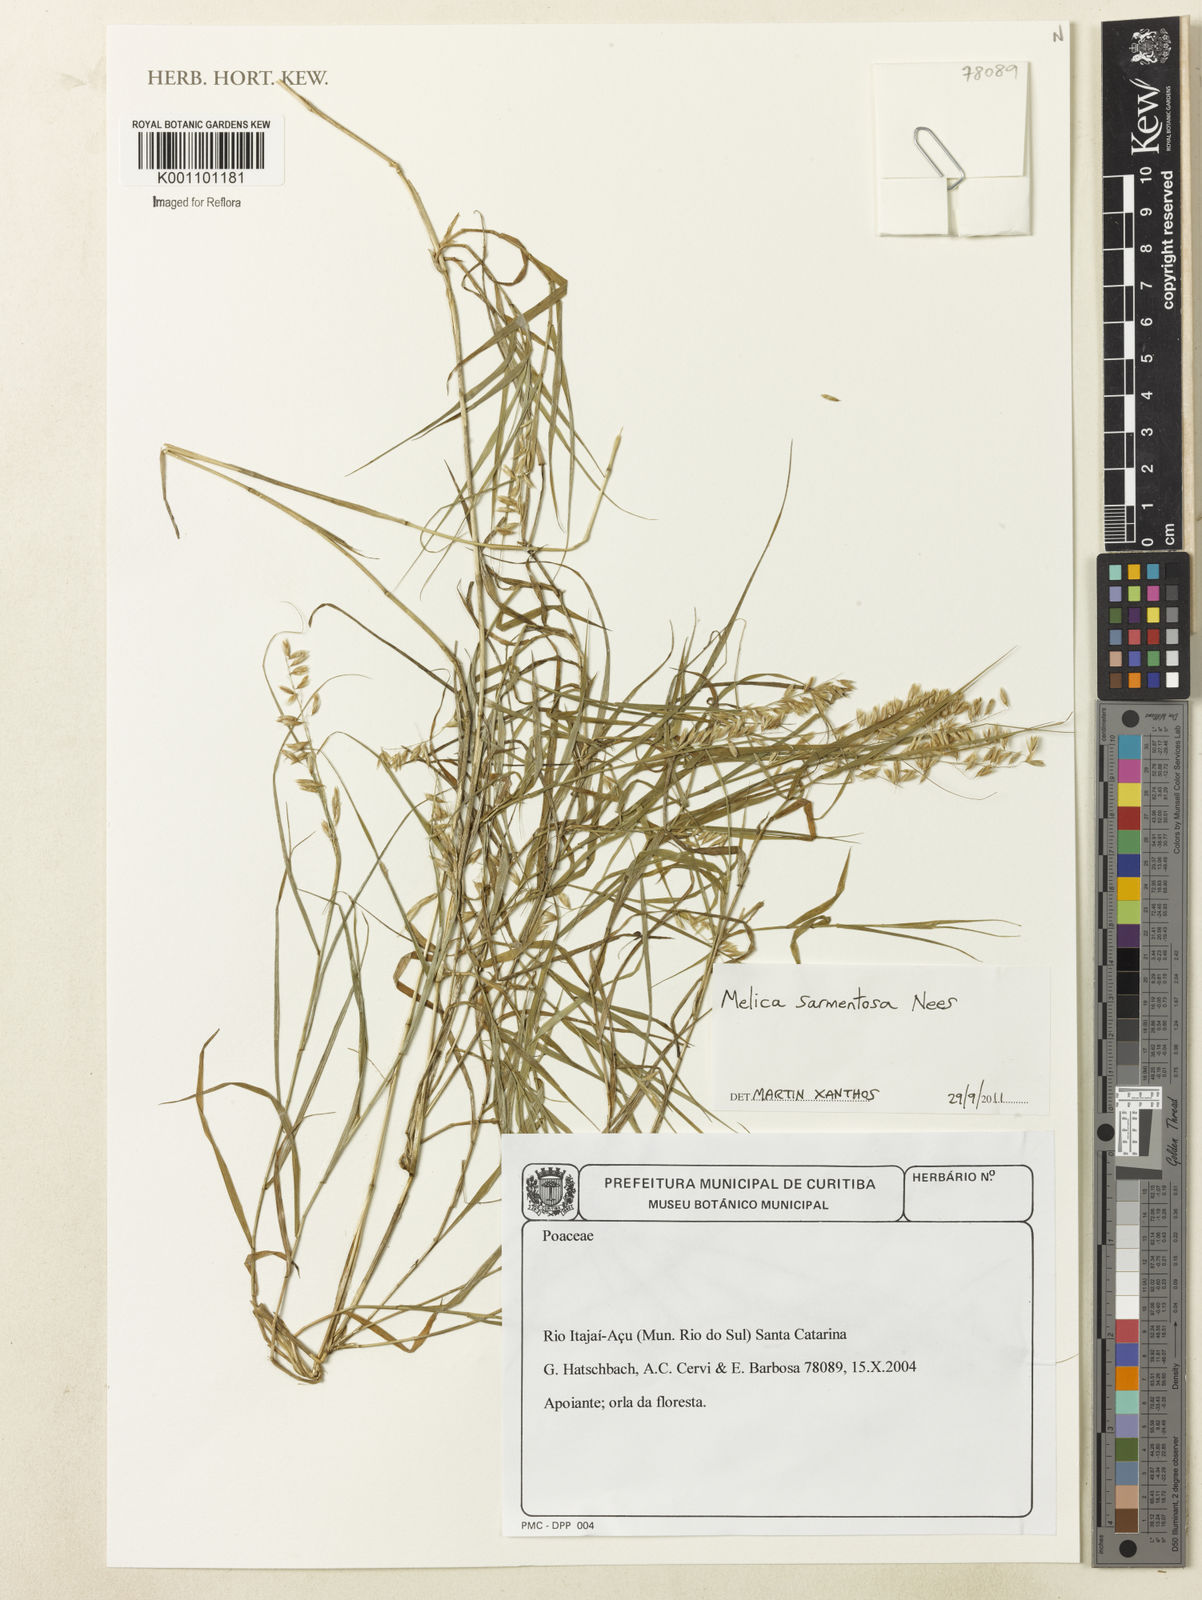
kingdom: Plantae
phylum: Tracheophyta
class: Liliopsida
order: Poales
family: Poaceae
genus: Melica
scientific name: Melica sarmentosa
